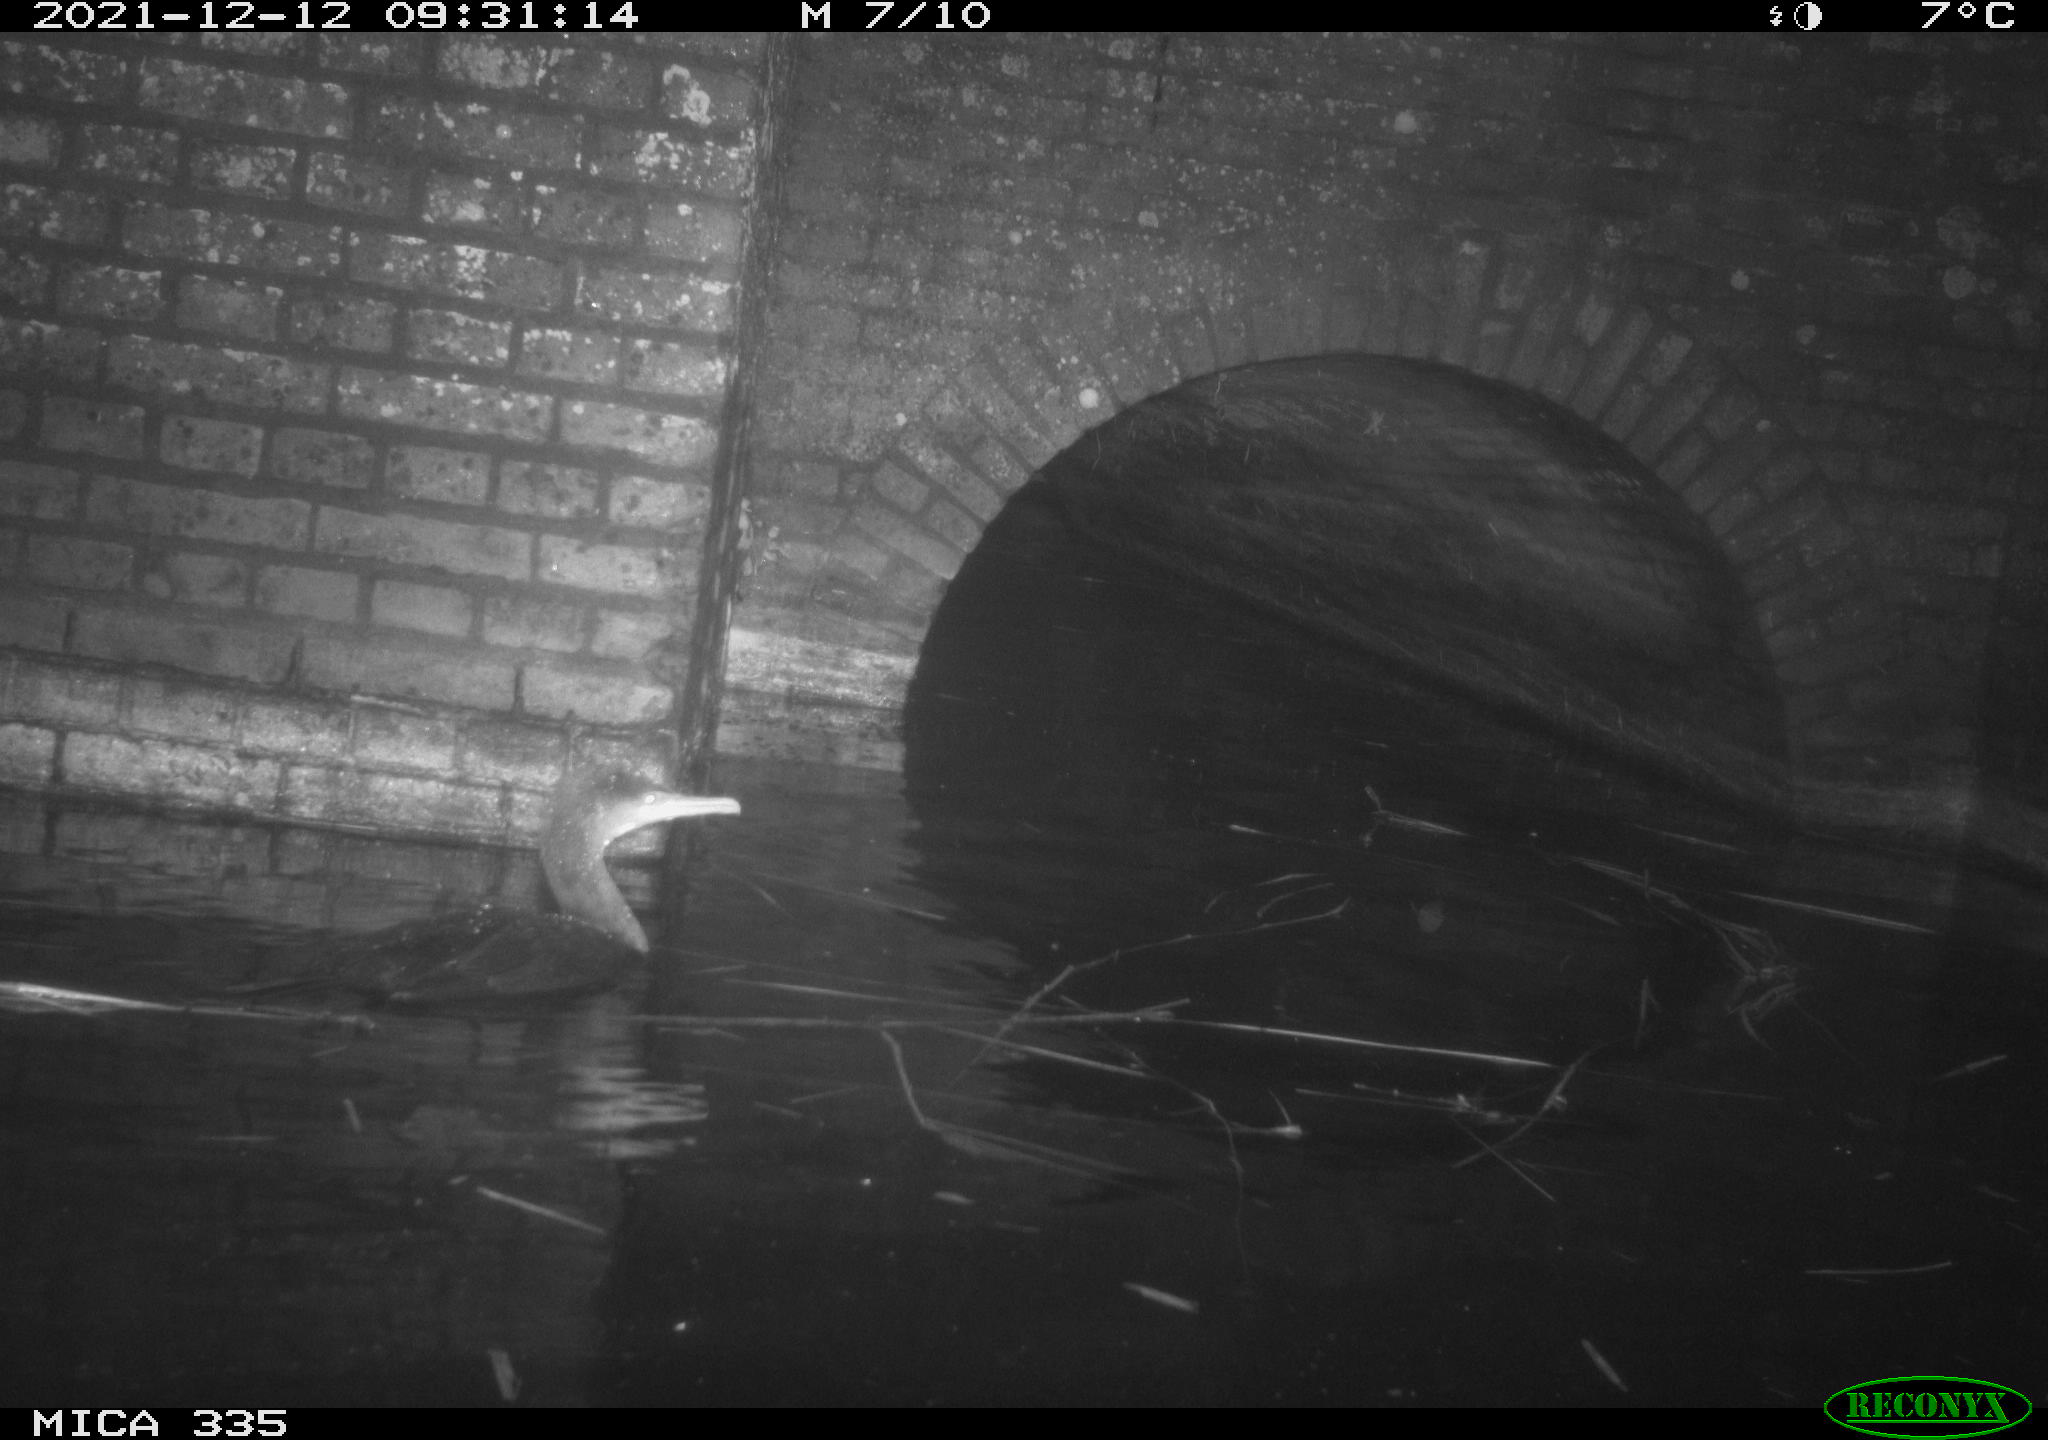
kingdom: Animalia
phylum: Chordata
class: Aves
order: Suliformes
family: Phalacrocoracidae
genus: Phalacrocorax
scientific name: Phalacrocorax carbo
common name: Great cormorant
